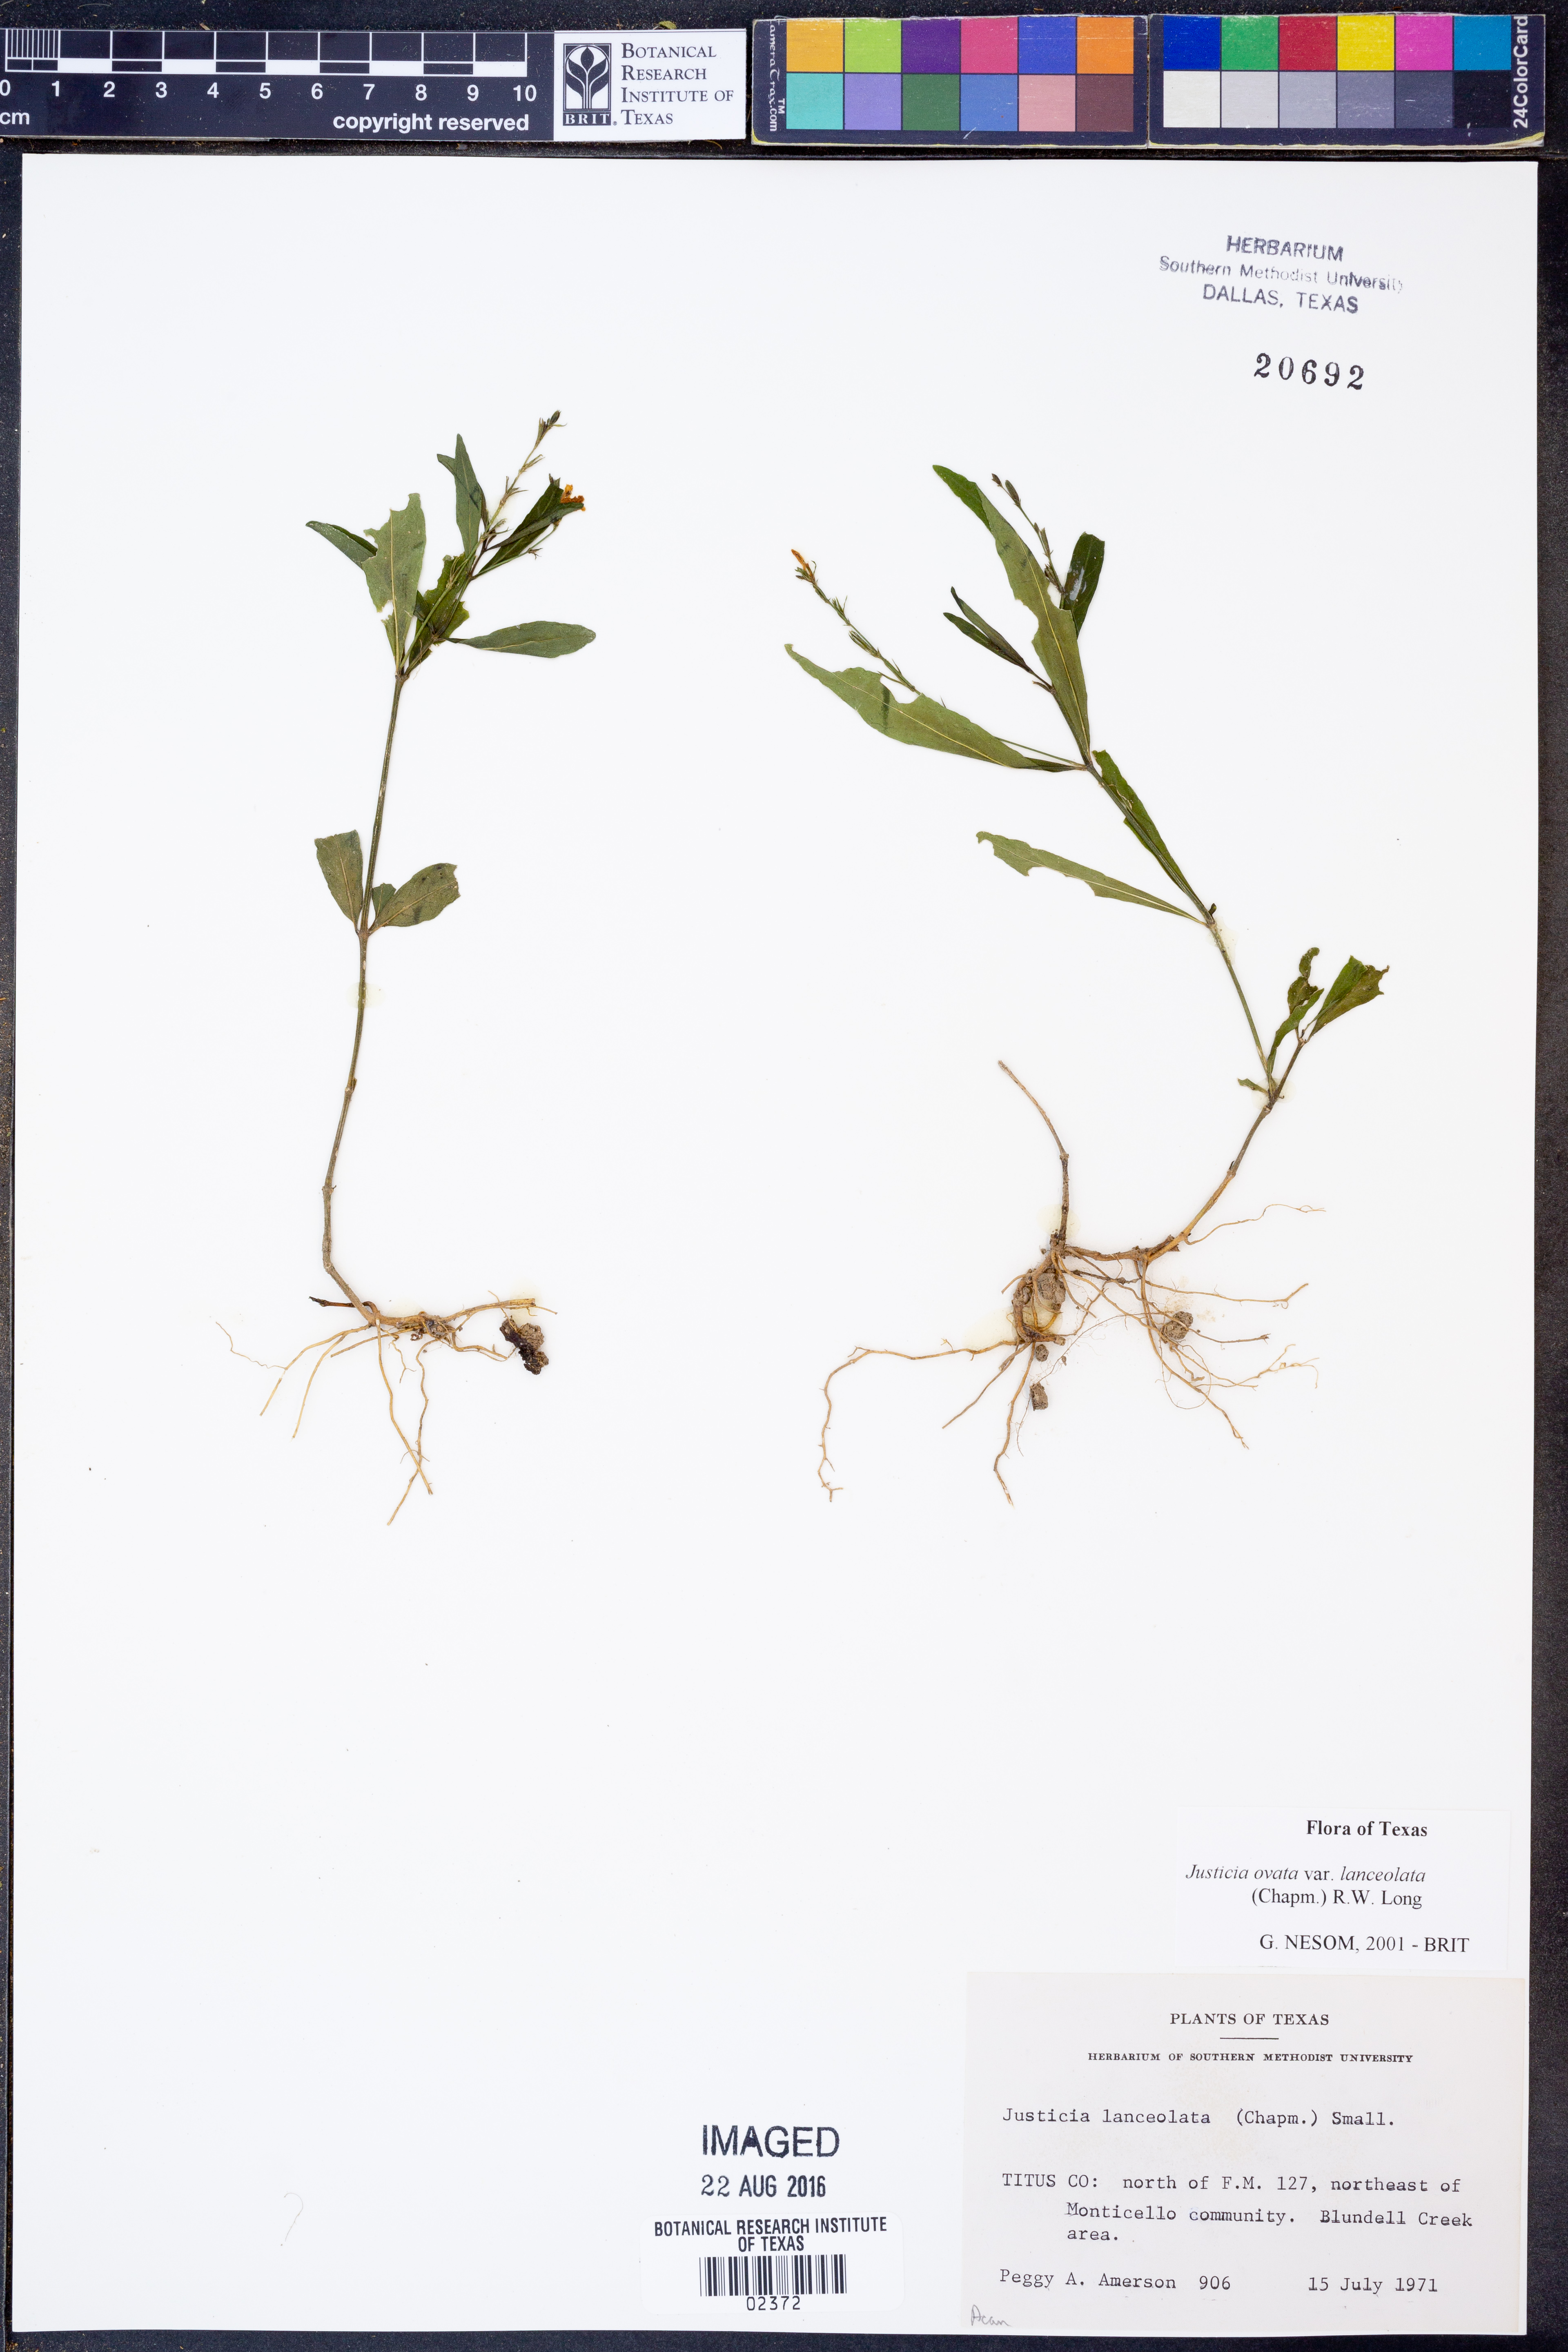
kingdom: Plantae
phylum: Tracheophyta
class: Magnoliopsida
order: Lamiales
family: Acanthaceae
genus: Justicia
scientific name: Justicia lanceolata
